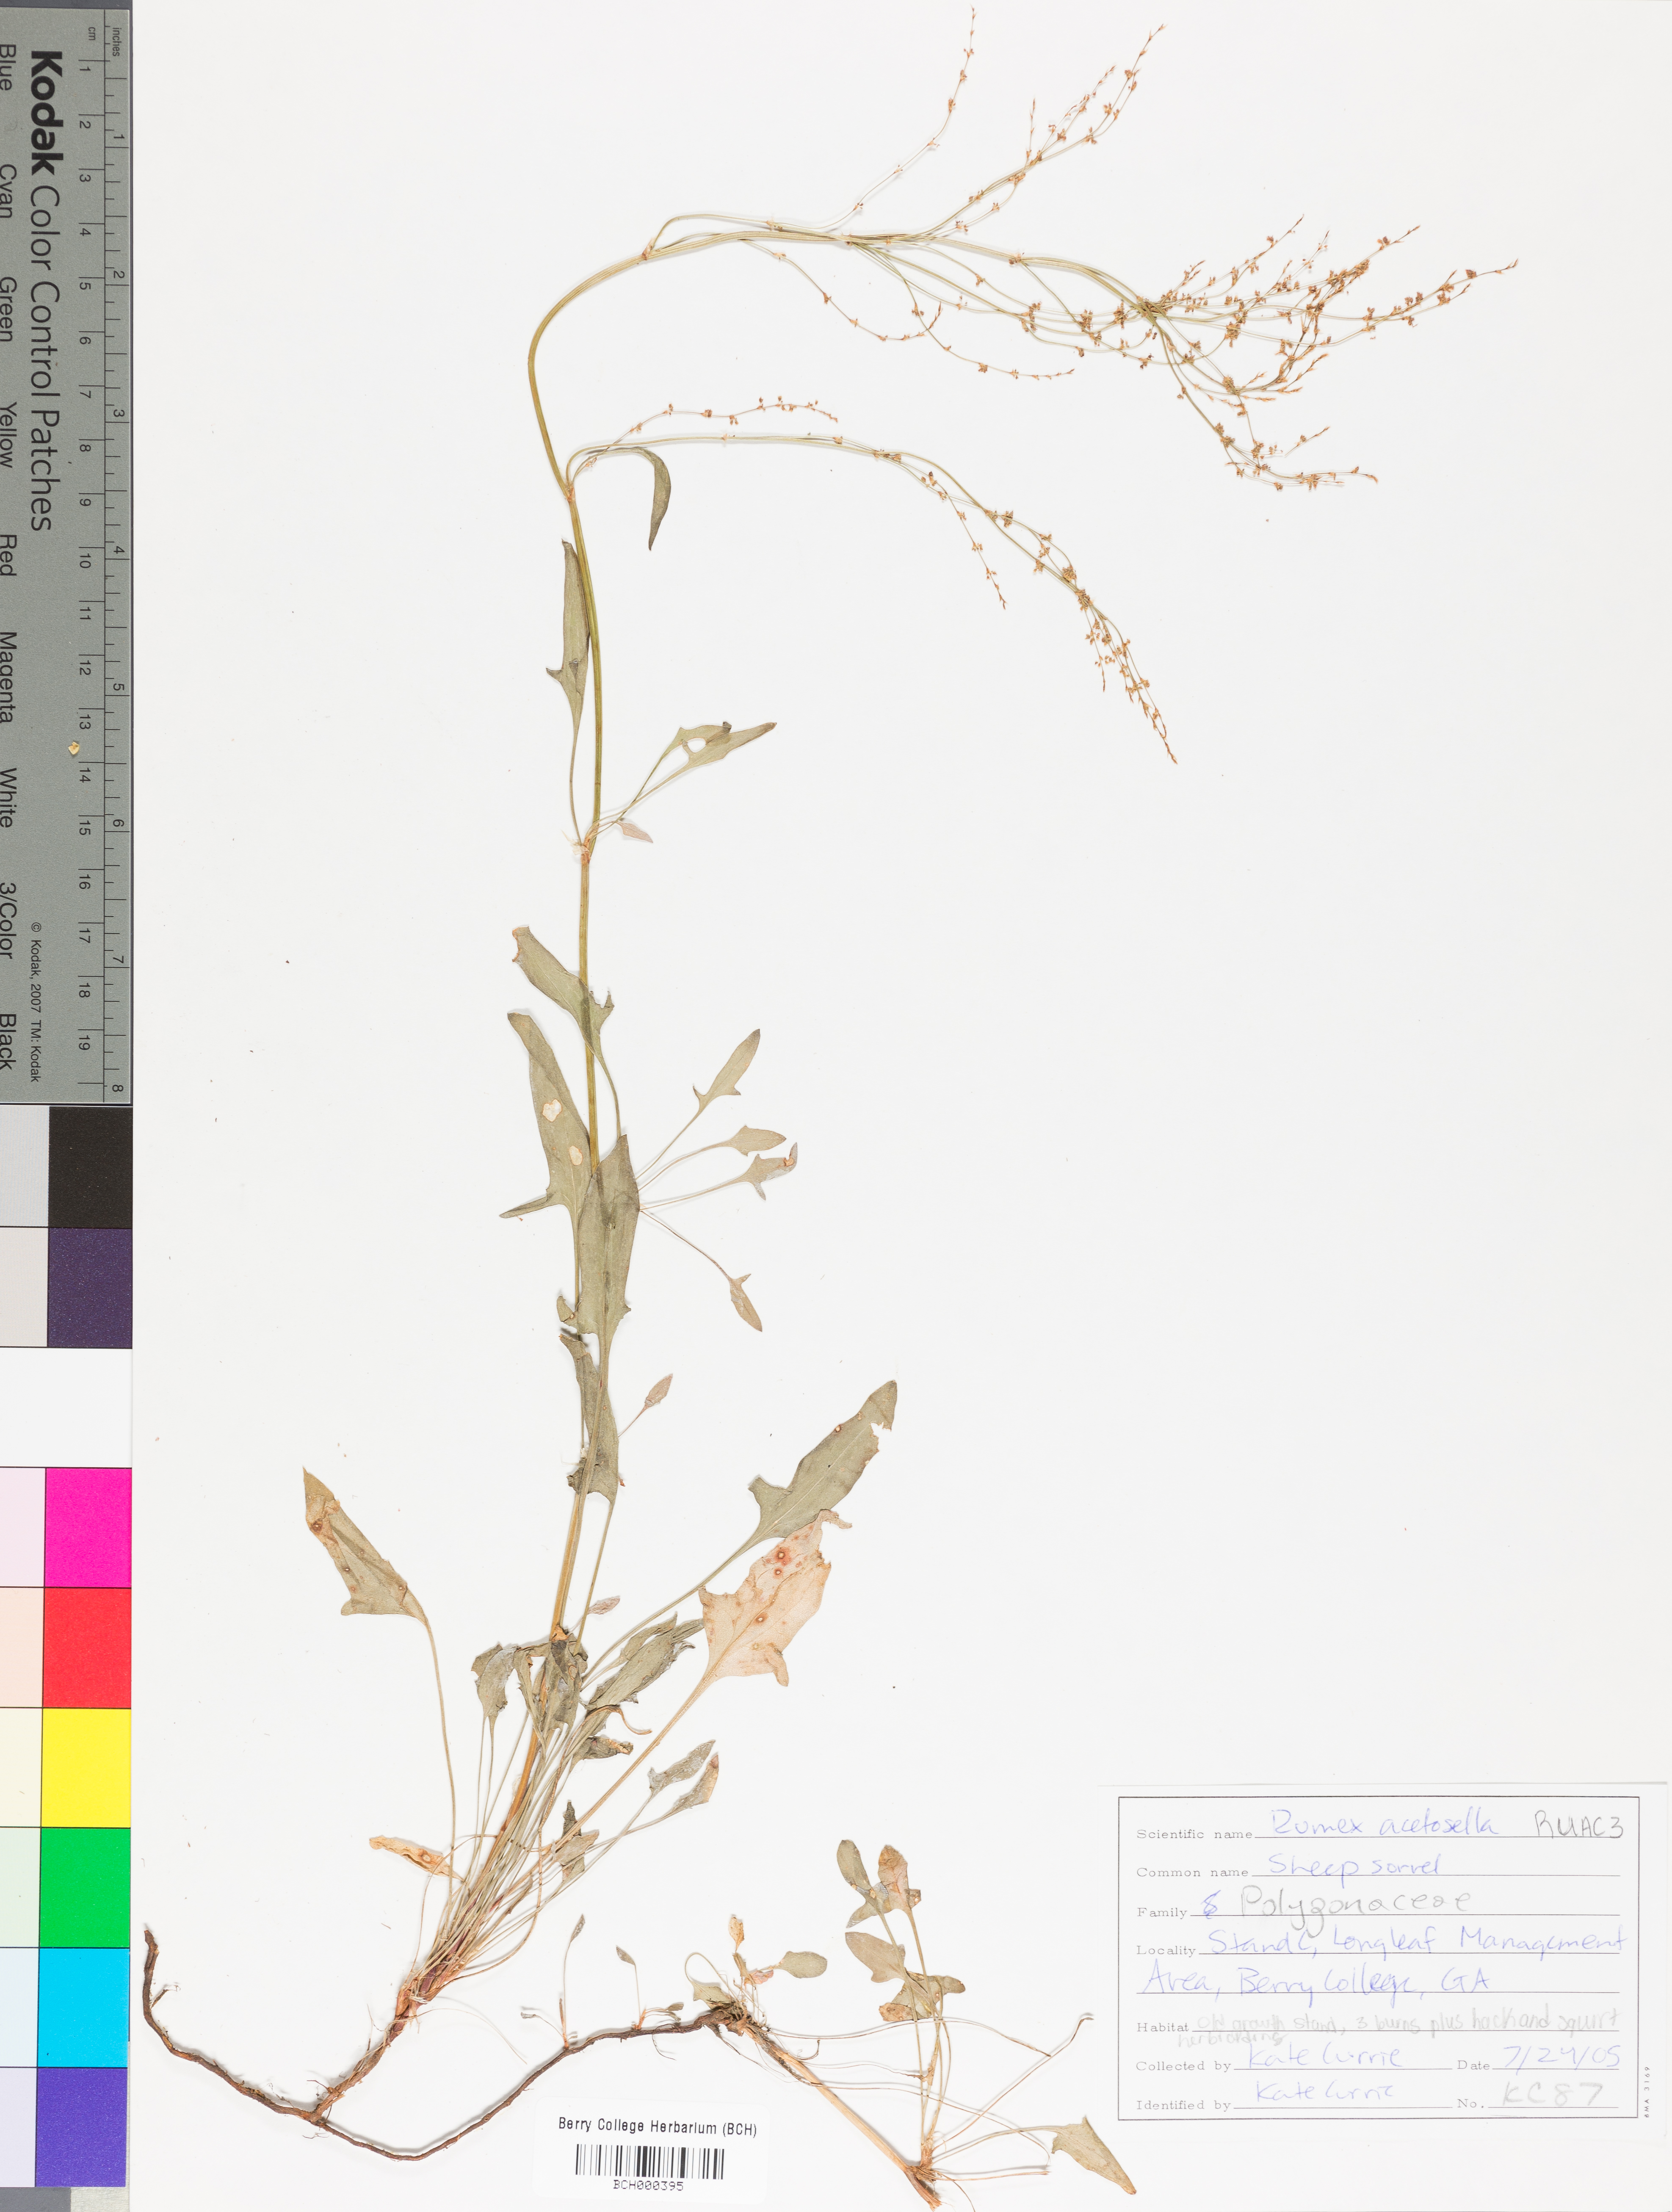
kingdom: Plantae
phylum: Tracheophyta
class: Magnoliopsida
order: Caryophyllales
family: Polygonaceae
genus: Rumex
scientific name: Rumex acetosella
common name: Common sheep sorrel
